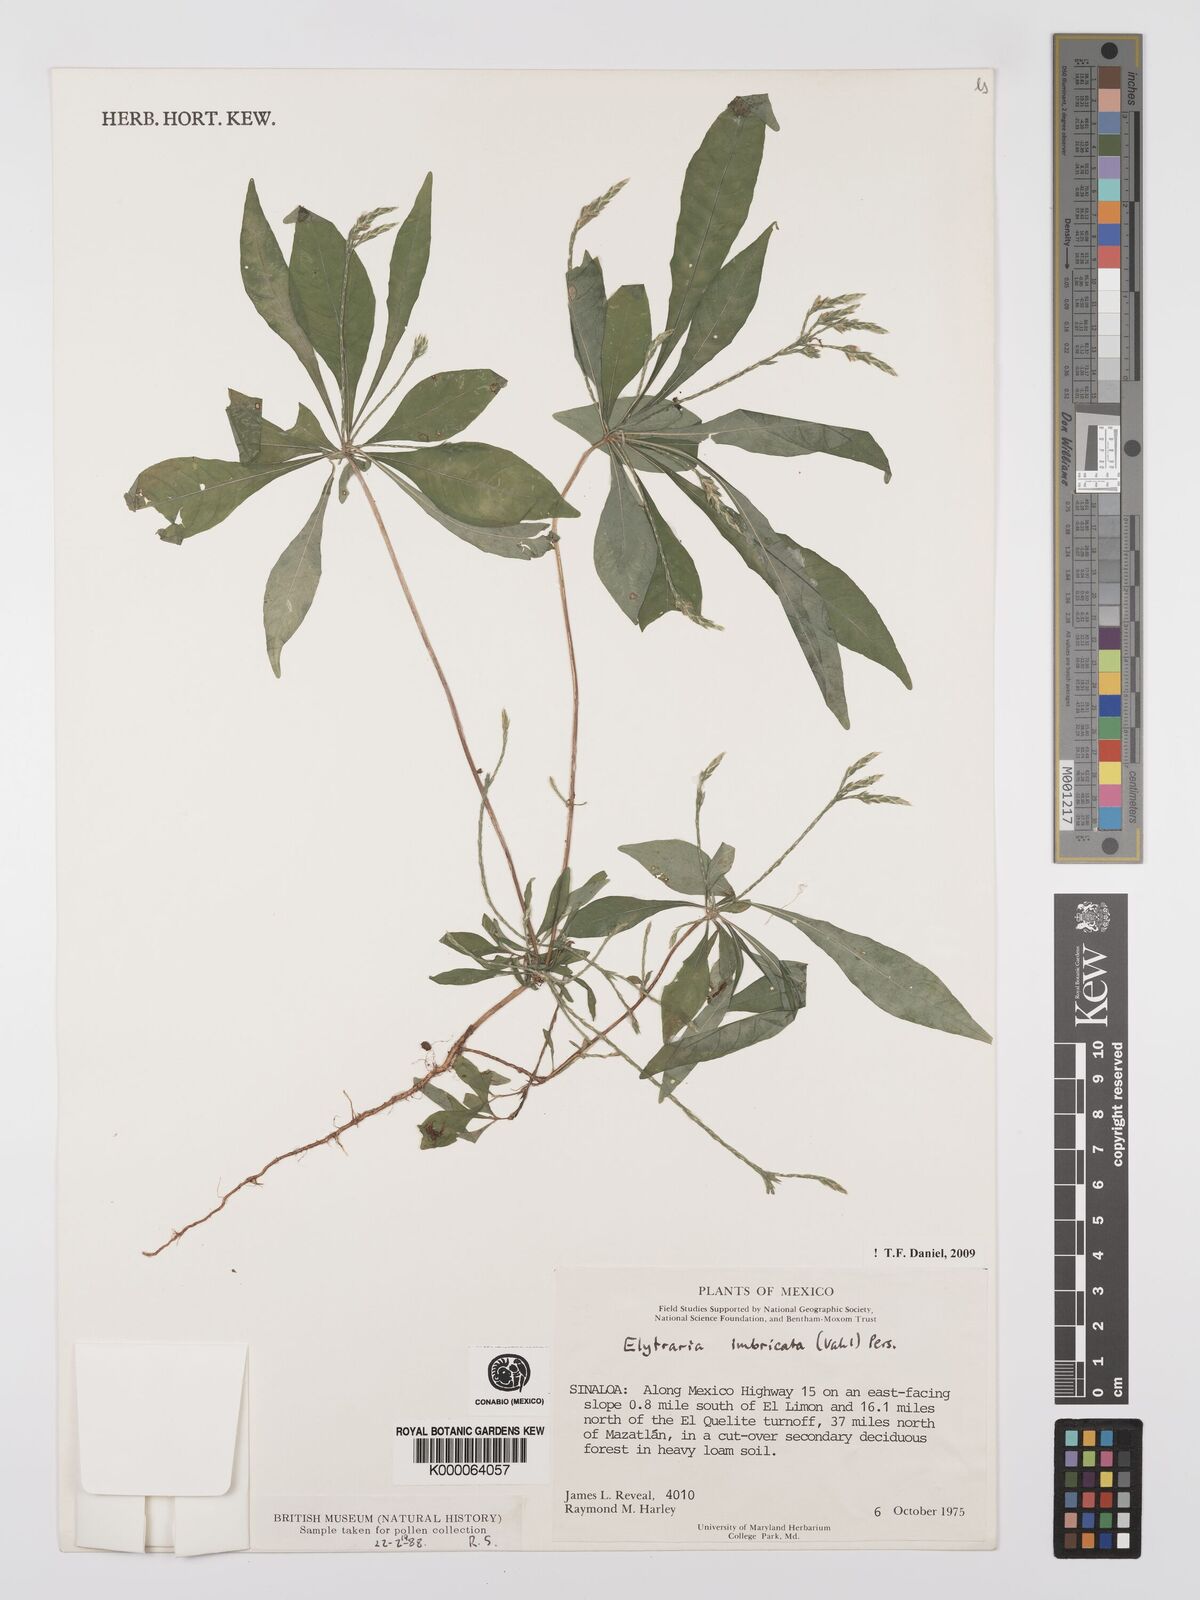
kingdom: Plantae
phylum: Tracheophyta
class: Magnoliopsida
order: Lamiales
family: Acanthaceae
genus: Elytraria
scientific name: Elytraria imbricata
